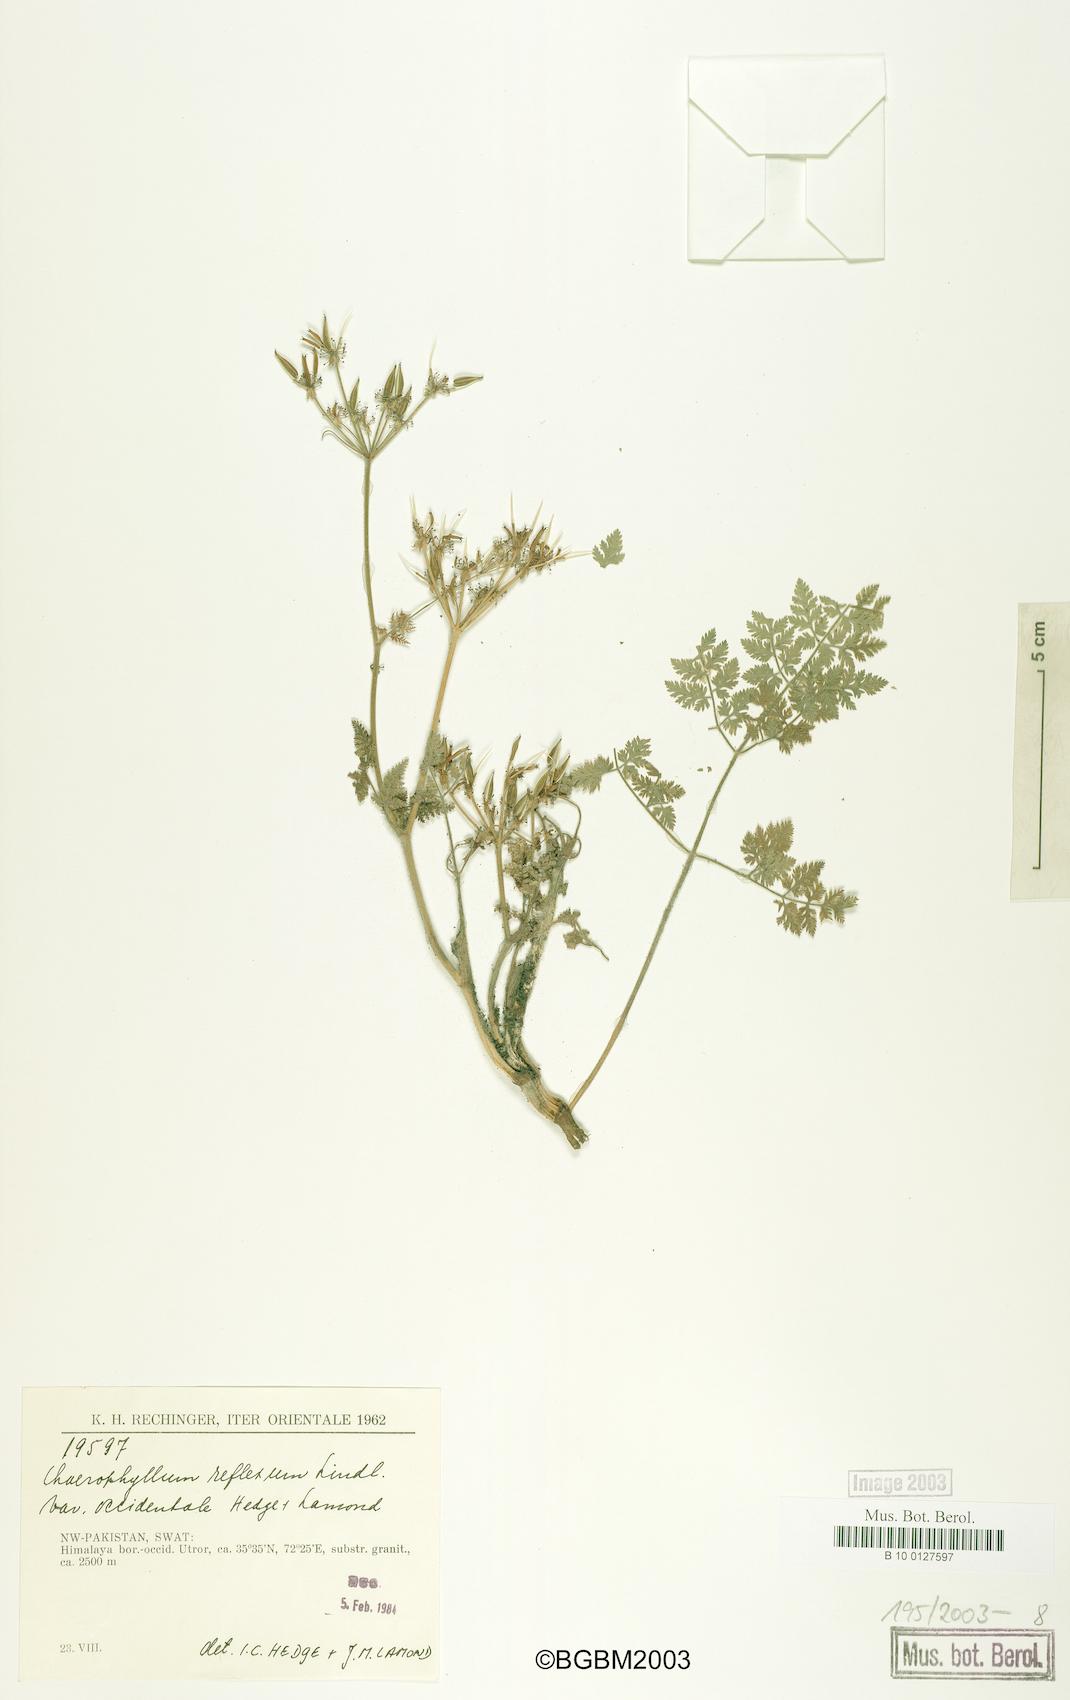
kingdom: Plantae
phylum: Tracheophyta
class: Magnoliopsida
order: Apiales
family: Apiaceae
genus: Chaerophyllum
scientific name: Chaerophyllum reflexum
